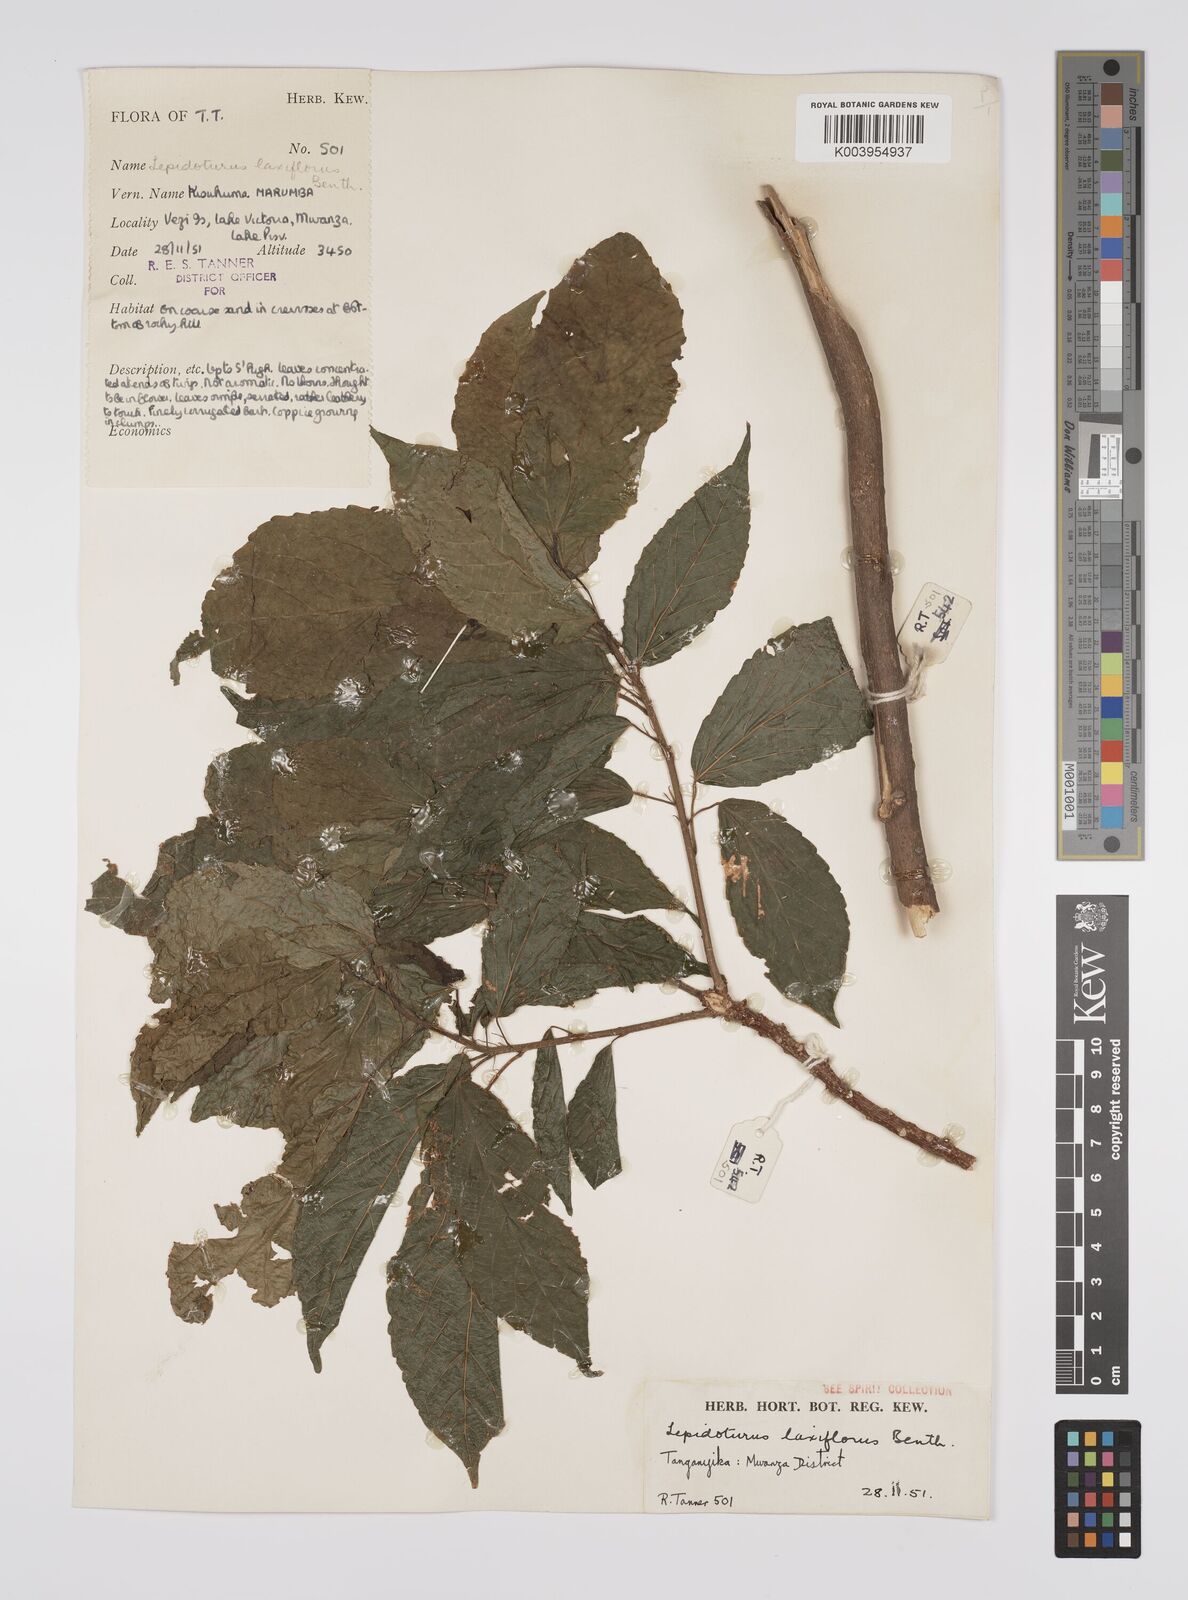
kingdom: Plantae
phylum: Tracheophyta
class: Magnoliopsida
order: Malpighiales
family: Euphorbiaceae
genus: Alchornea
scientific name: Alchornea laxiflora
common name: Lowveld bead-string
